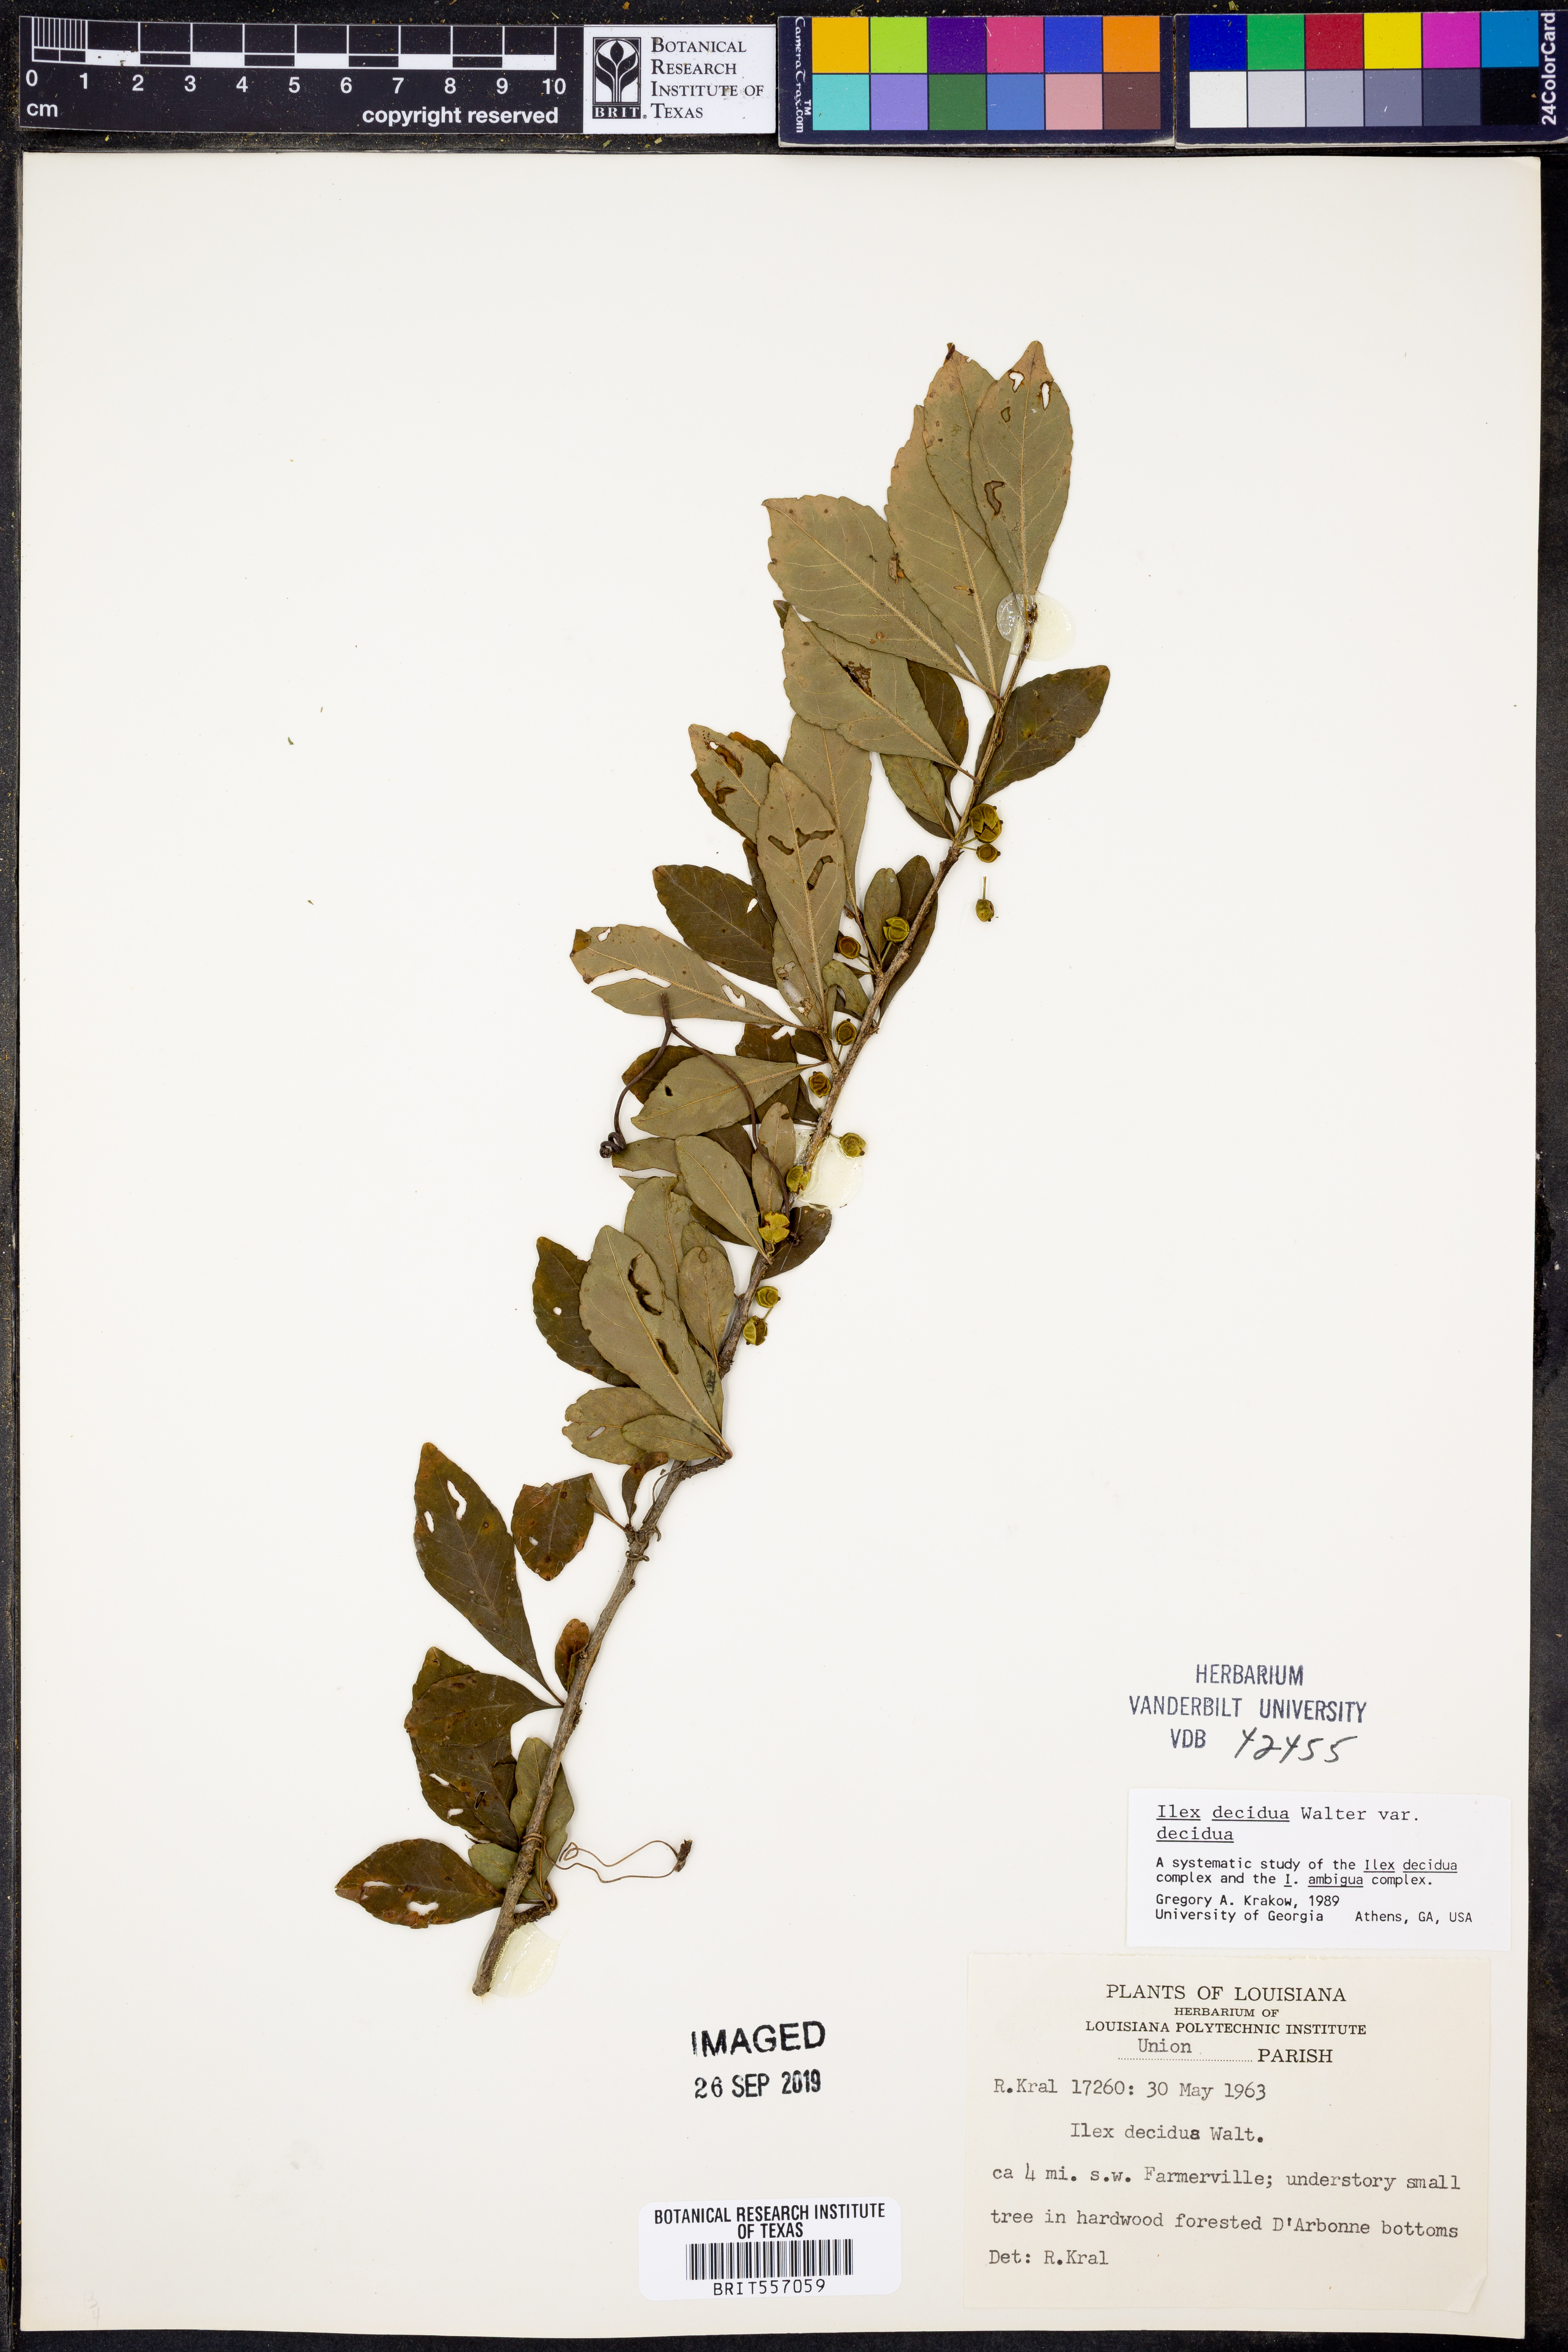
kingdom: Plantae
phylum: Tracheophyta
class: Magnoliopsida
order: Aquifoliales
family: Aquifoliaceae
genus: Ilex
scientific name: Ilex decidua
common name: Possum-haw
